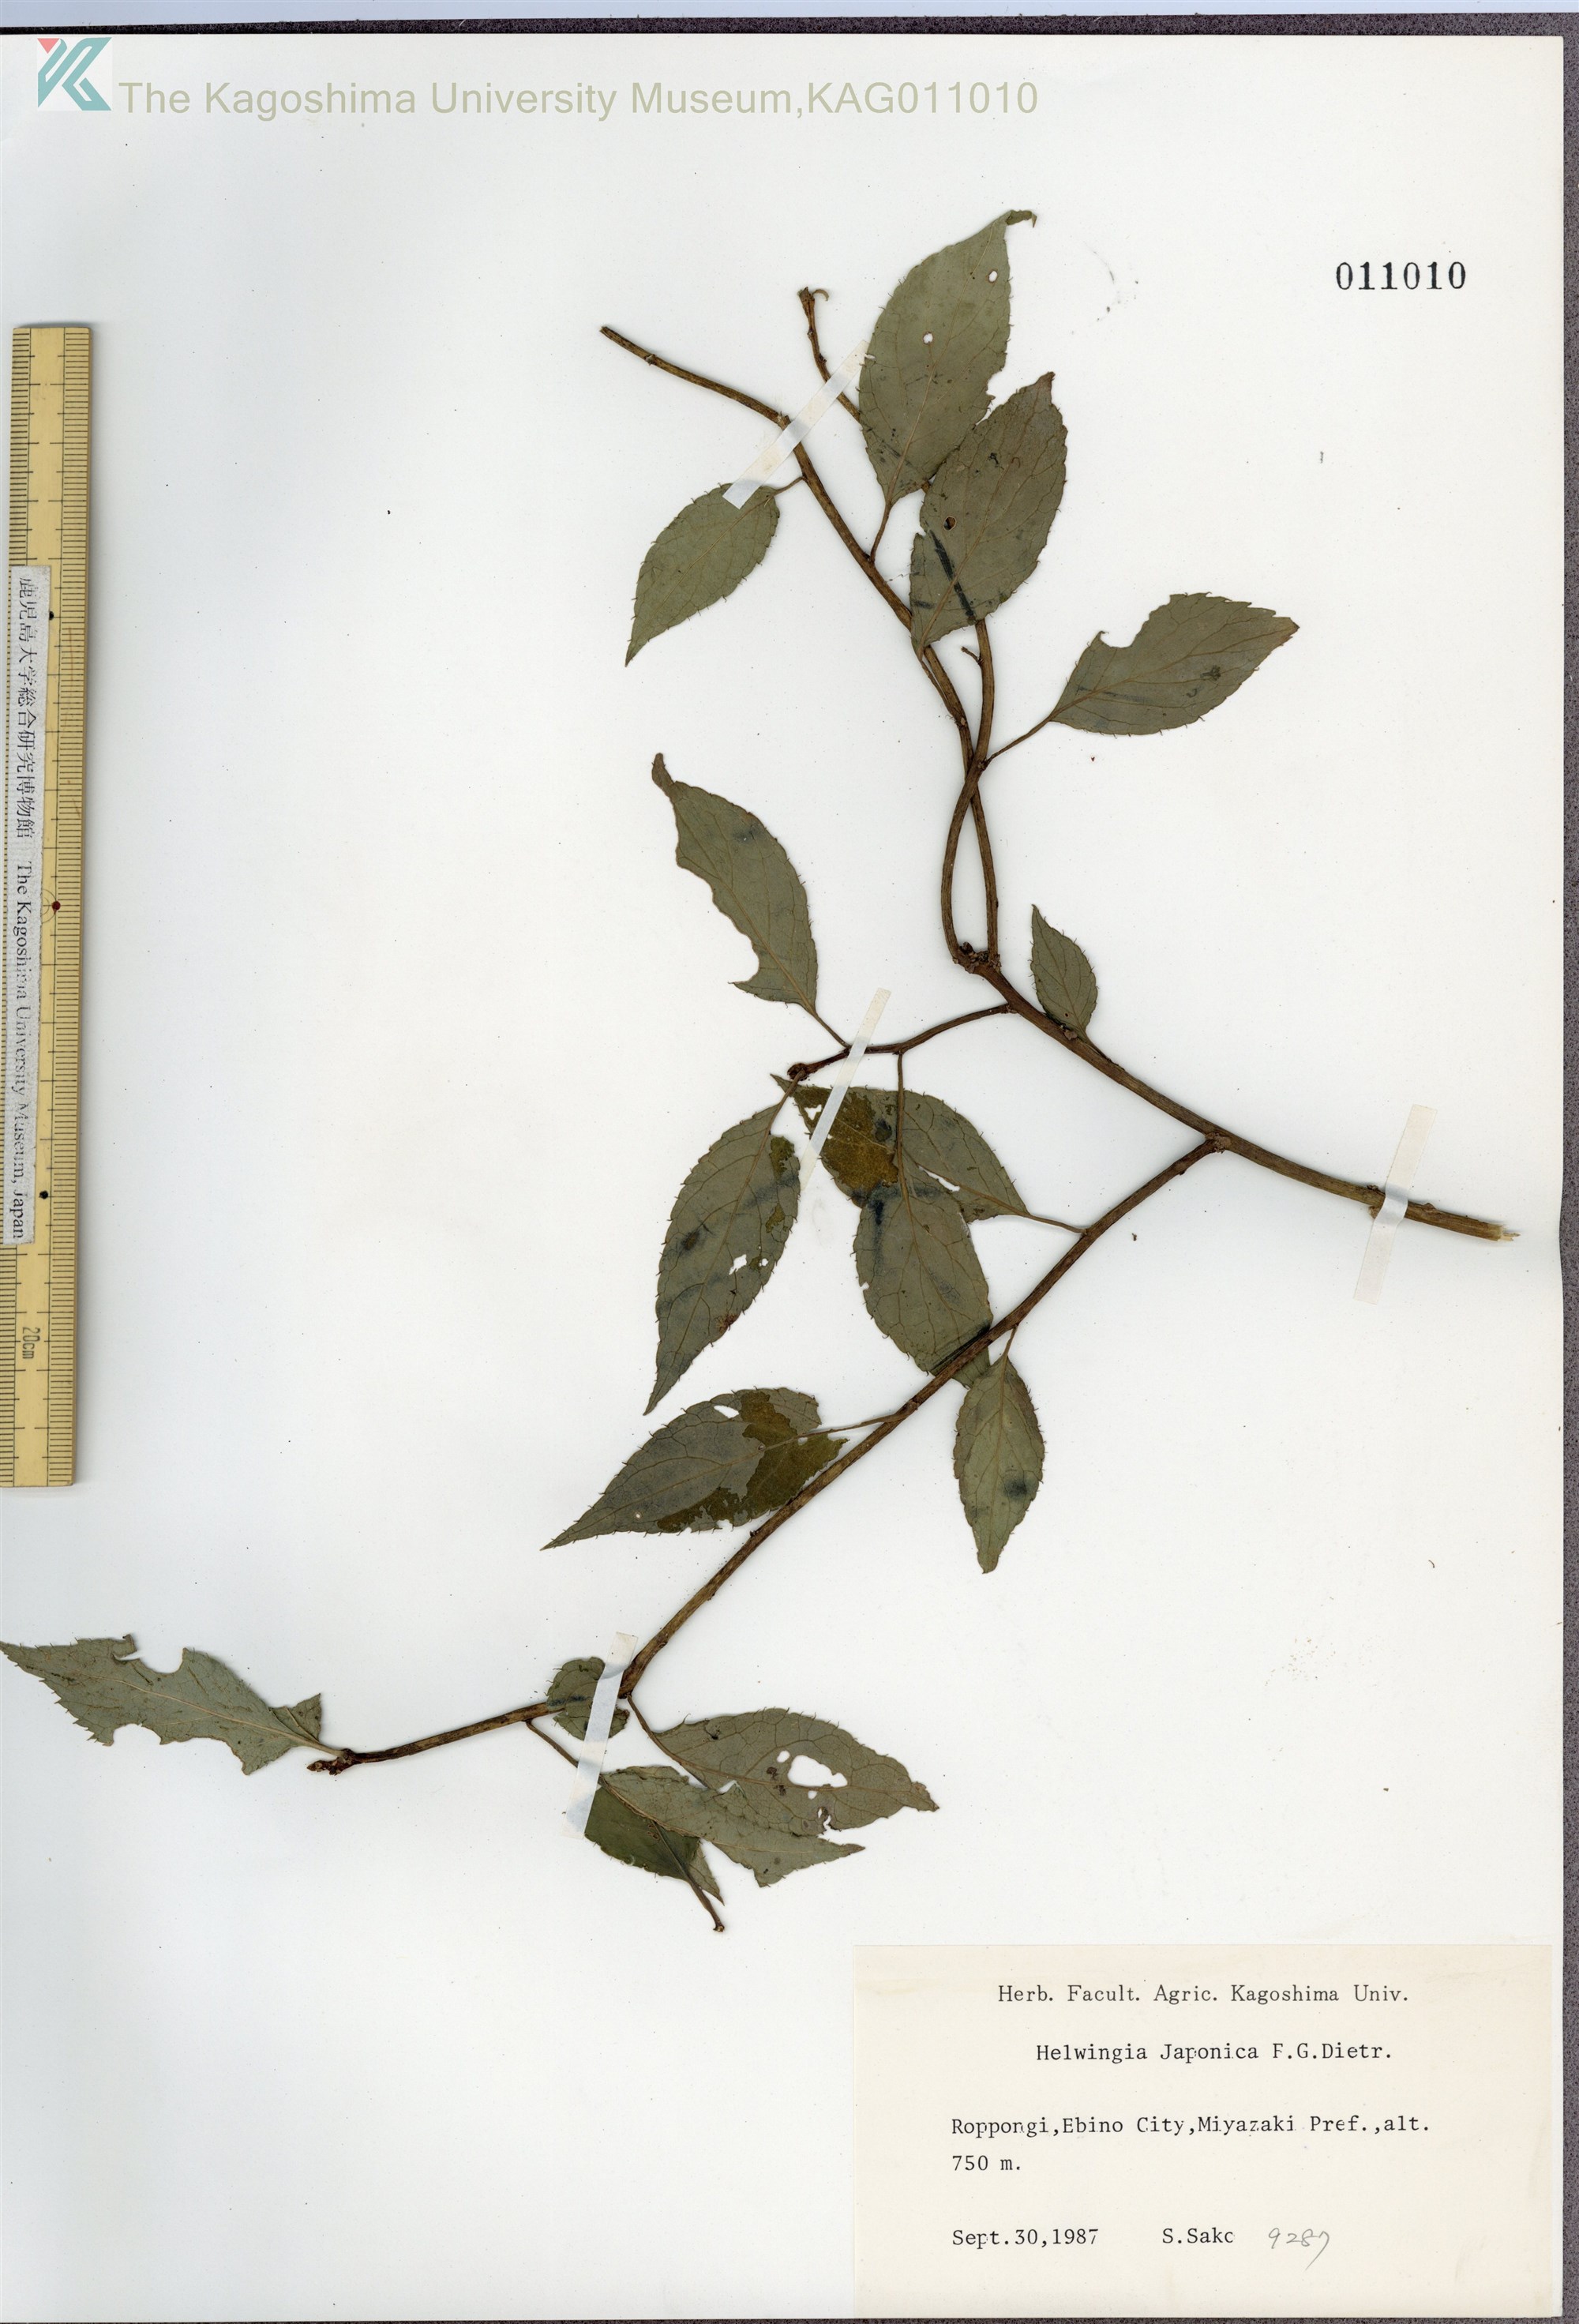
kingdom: Plantae
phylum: Tracheophyta
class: Magnoliopsida
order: Aquifoliales
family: Helwingiaceae
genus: Helwingia
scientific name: Helwingia japonica
